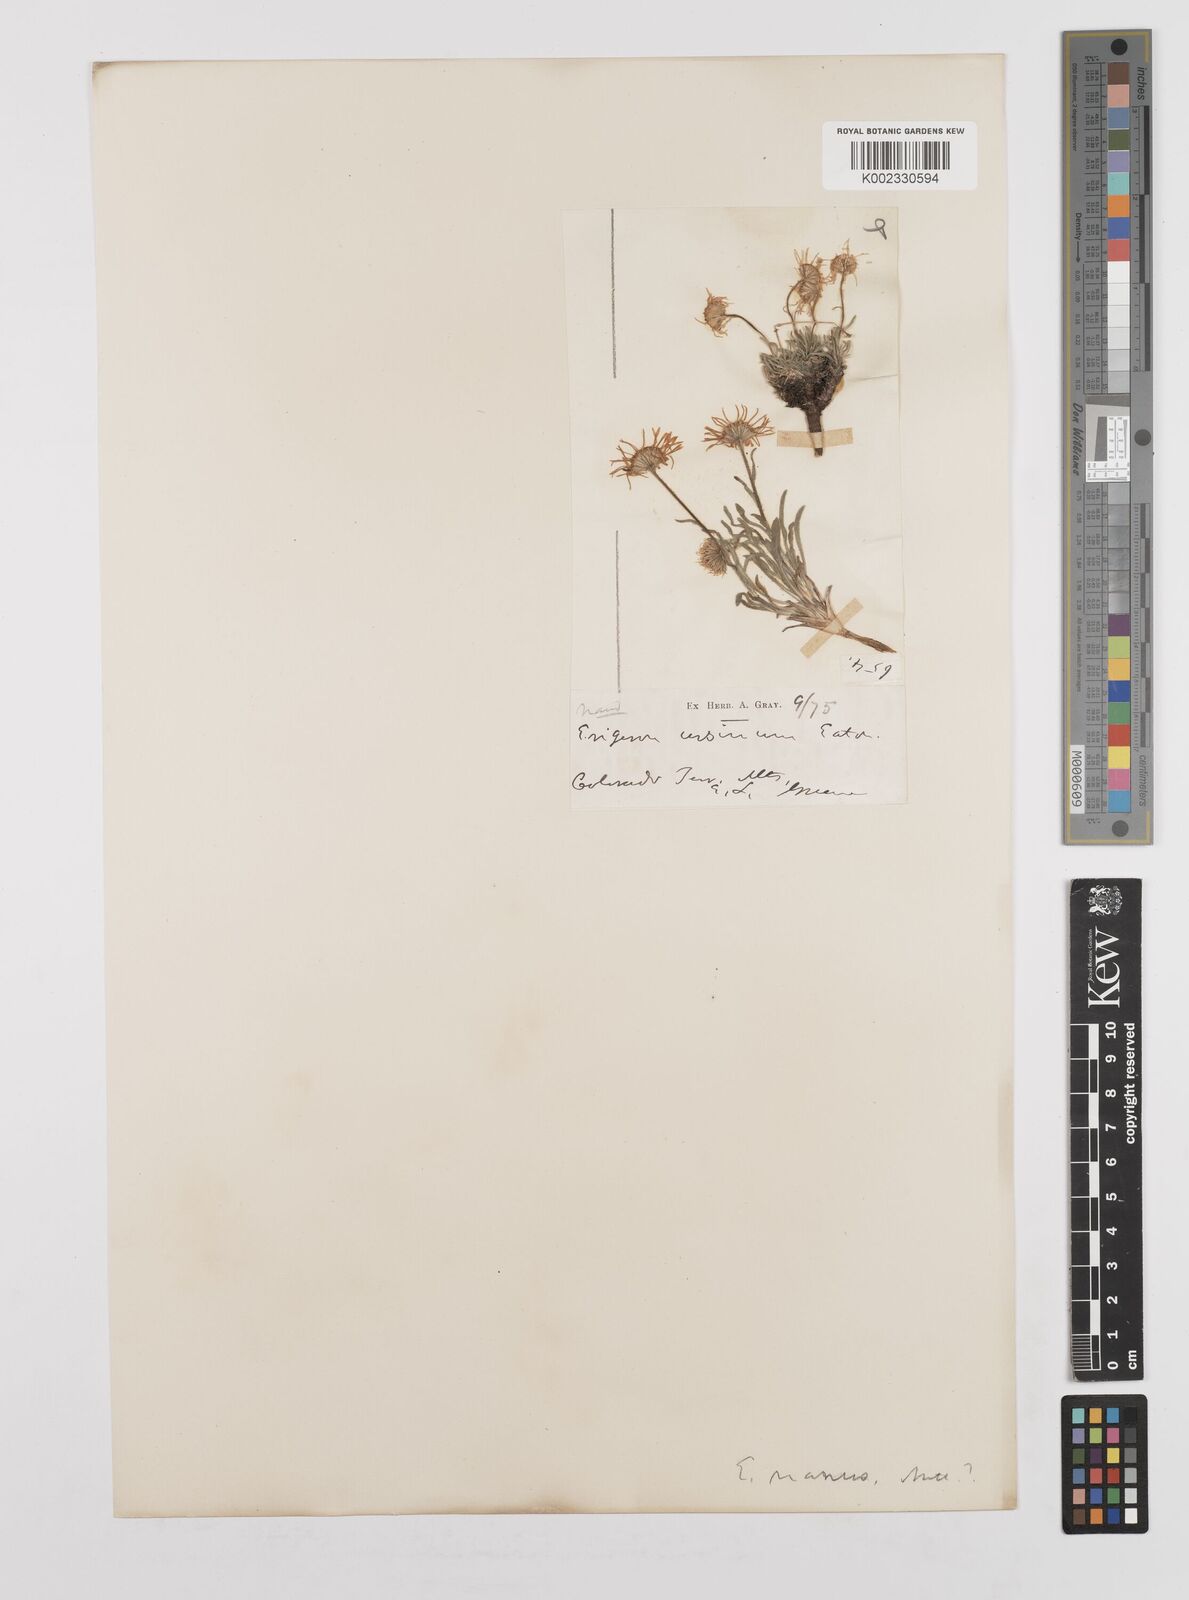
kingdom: Plantae
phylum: Tracheophyta
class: Magnoliopsida
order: Asterales
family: Asteraceae
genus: Erigeron
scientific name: Erigeron radicatus
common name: Dwarf fleabane
